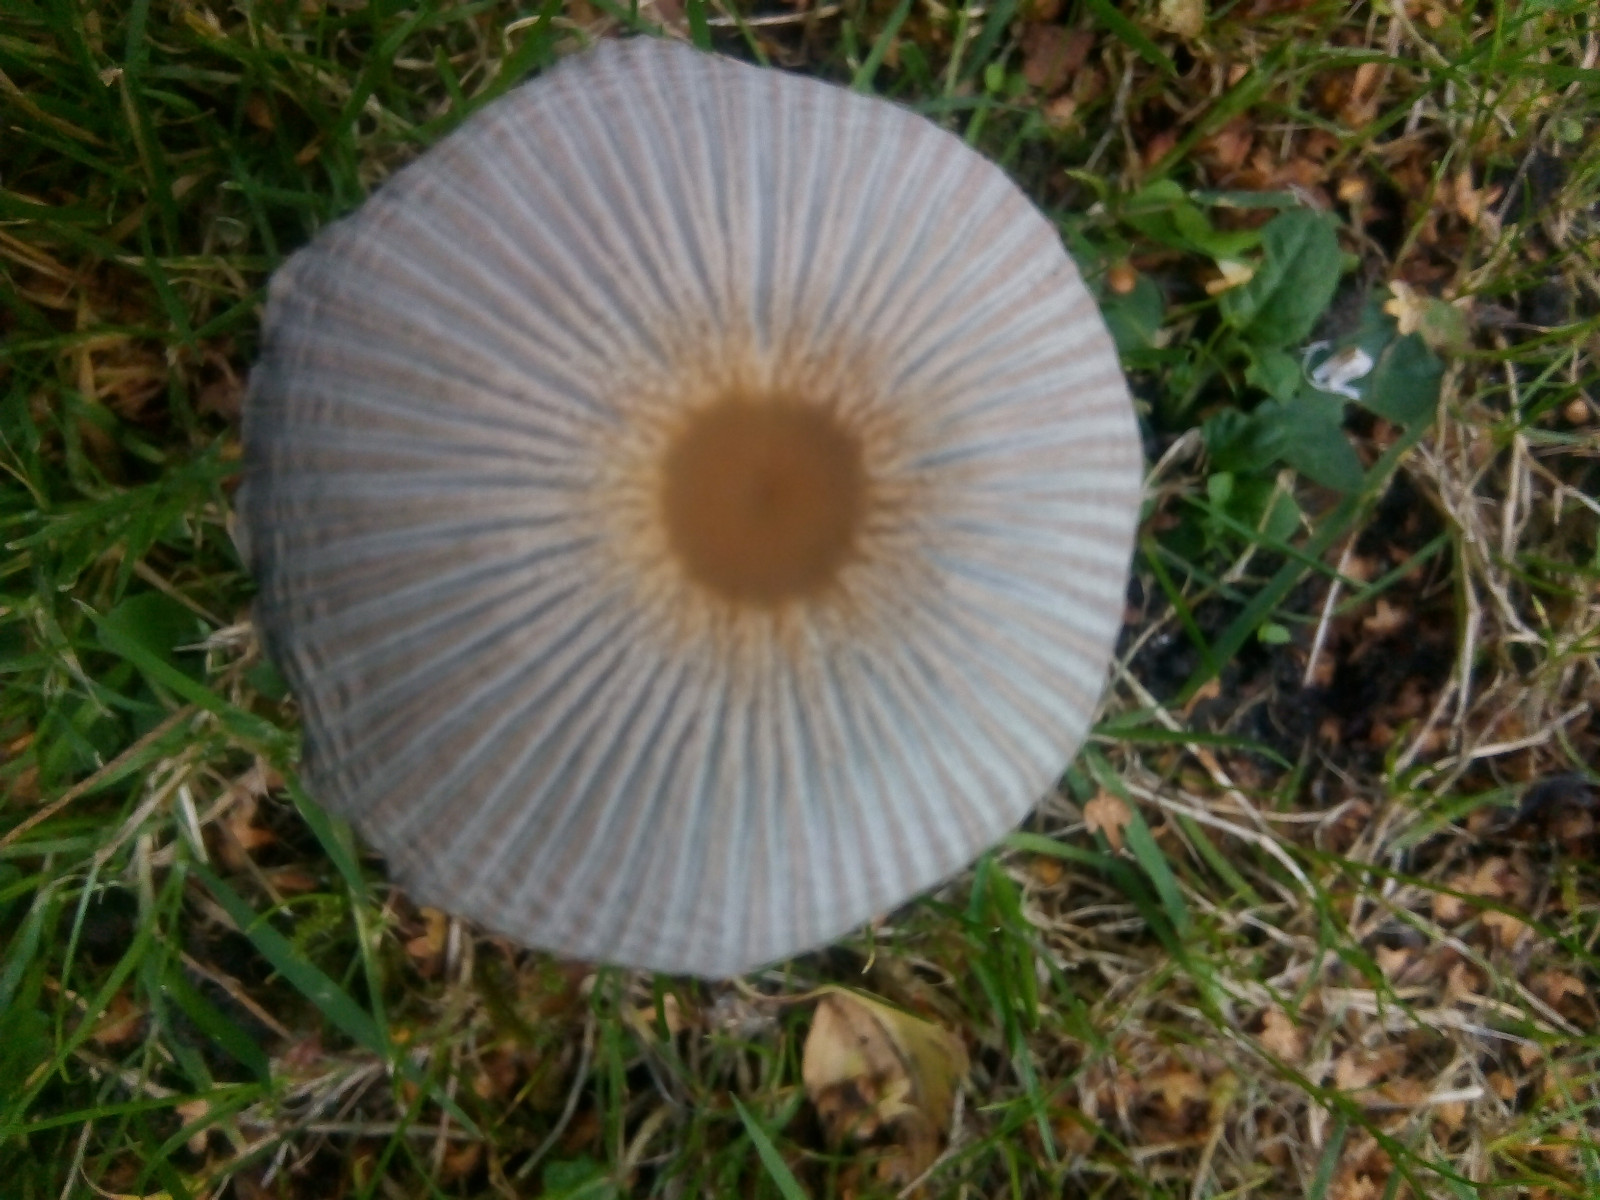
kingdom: Fungi
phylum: Basidiomycota
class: Agaricomycetes
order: Agaricales
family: Psathyrellaceae
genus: Parasola
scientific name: Parasola plicatilis
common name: plæne-hjulhat
